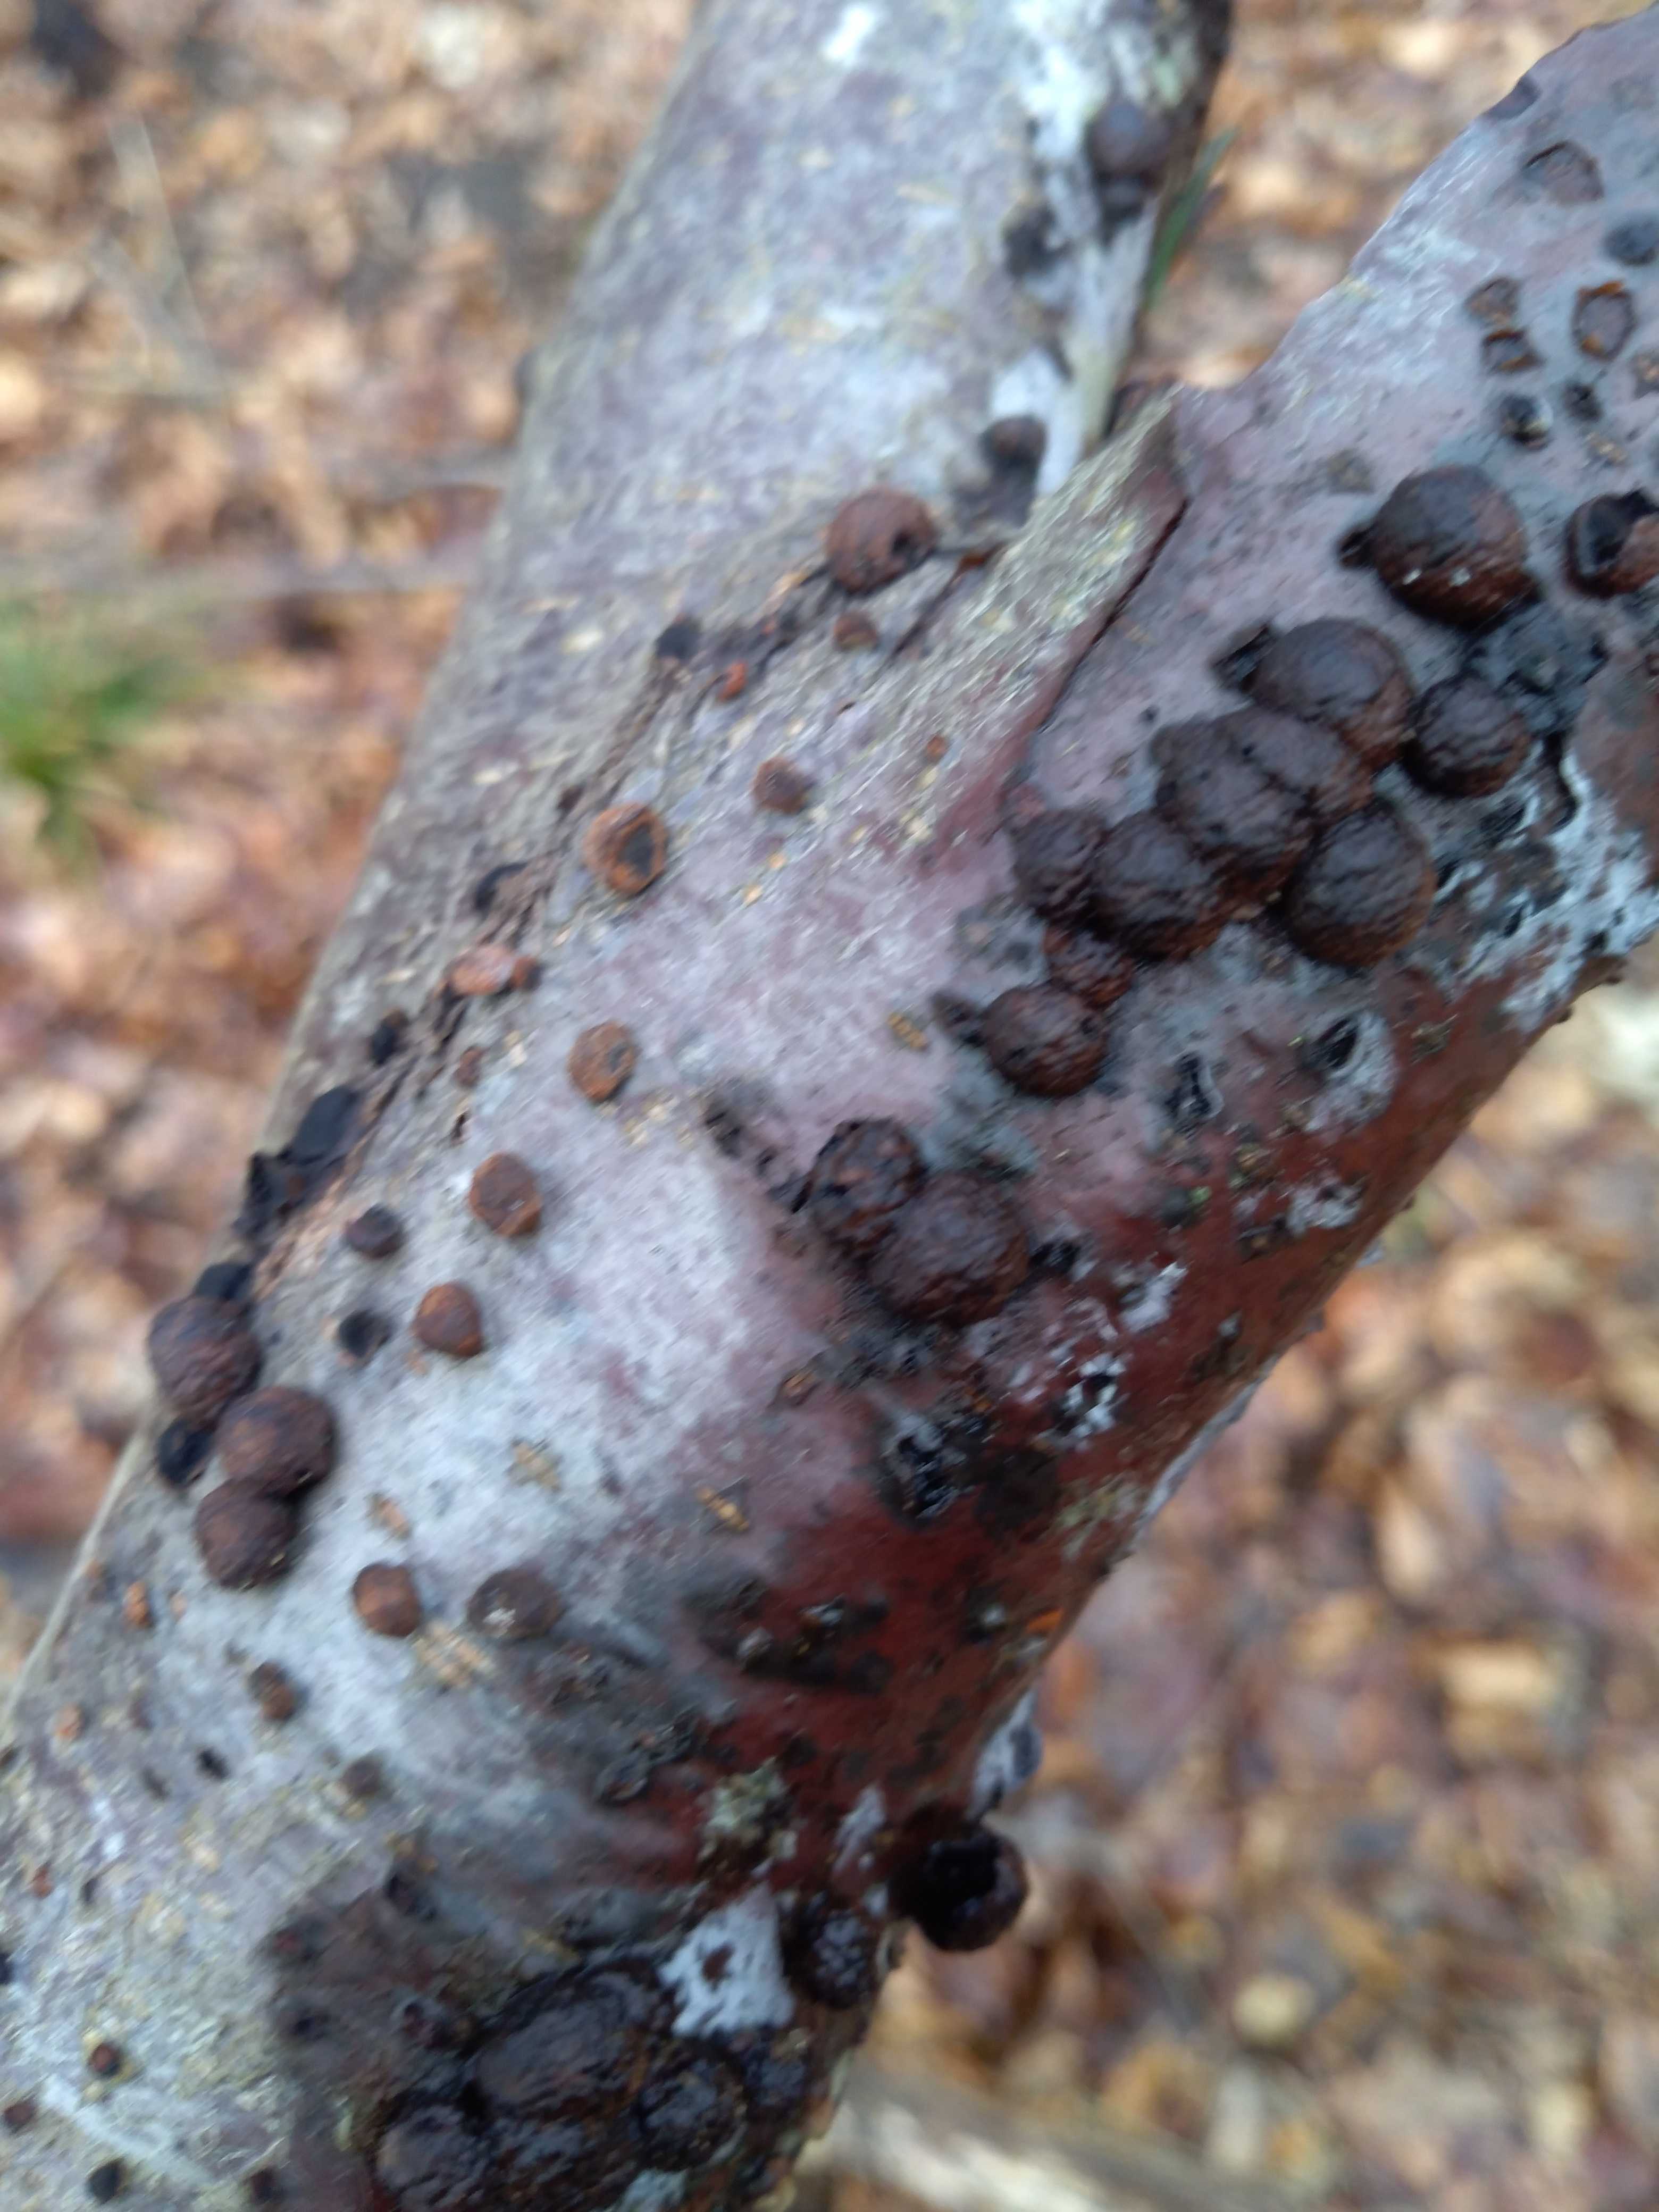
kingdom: Fungi
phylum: Ascomycota
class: Sordariomycetes
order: Xylariales
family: Hypoxylaceae
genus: Hypoxylon
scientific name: Hypoxylon fragiforme
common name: kuljordbær
